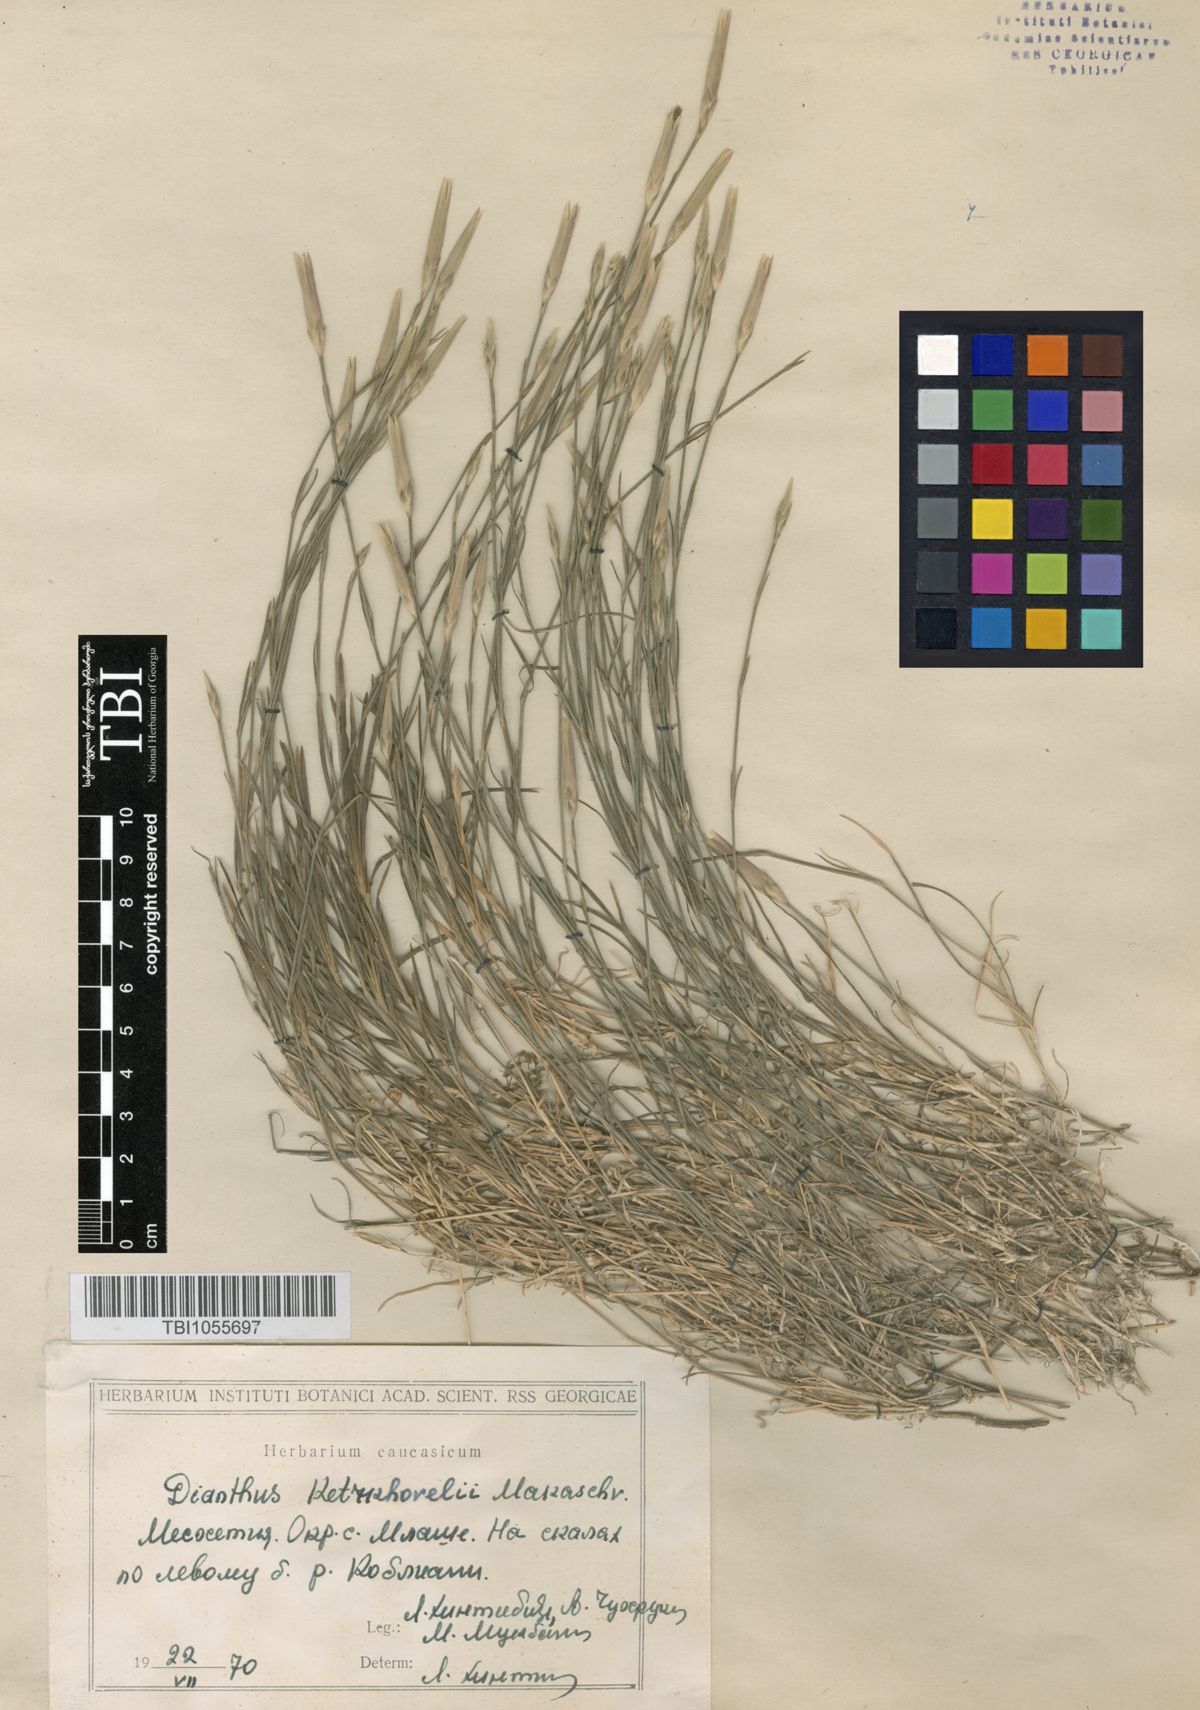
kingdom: Plantae
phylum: Tracheophyta
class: Magnoliopsida
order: Caryophyllales
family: Caryophyllaceae
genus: Dianthus
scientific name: Dianthus orientalis
